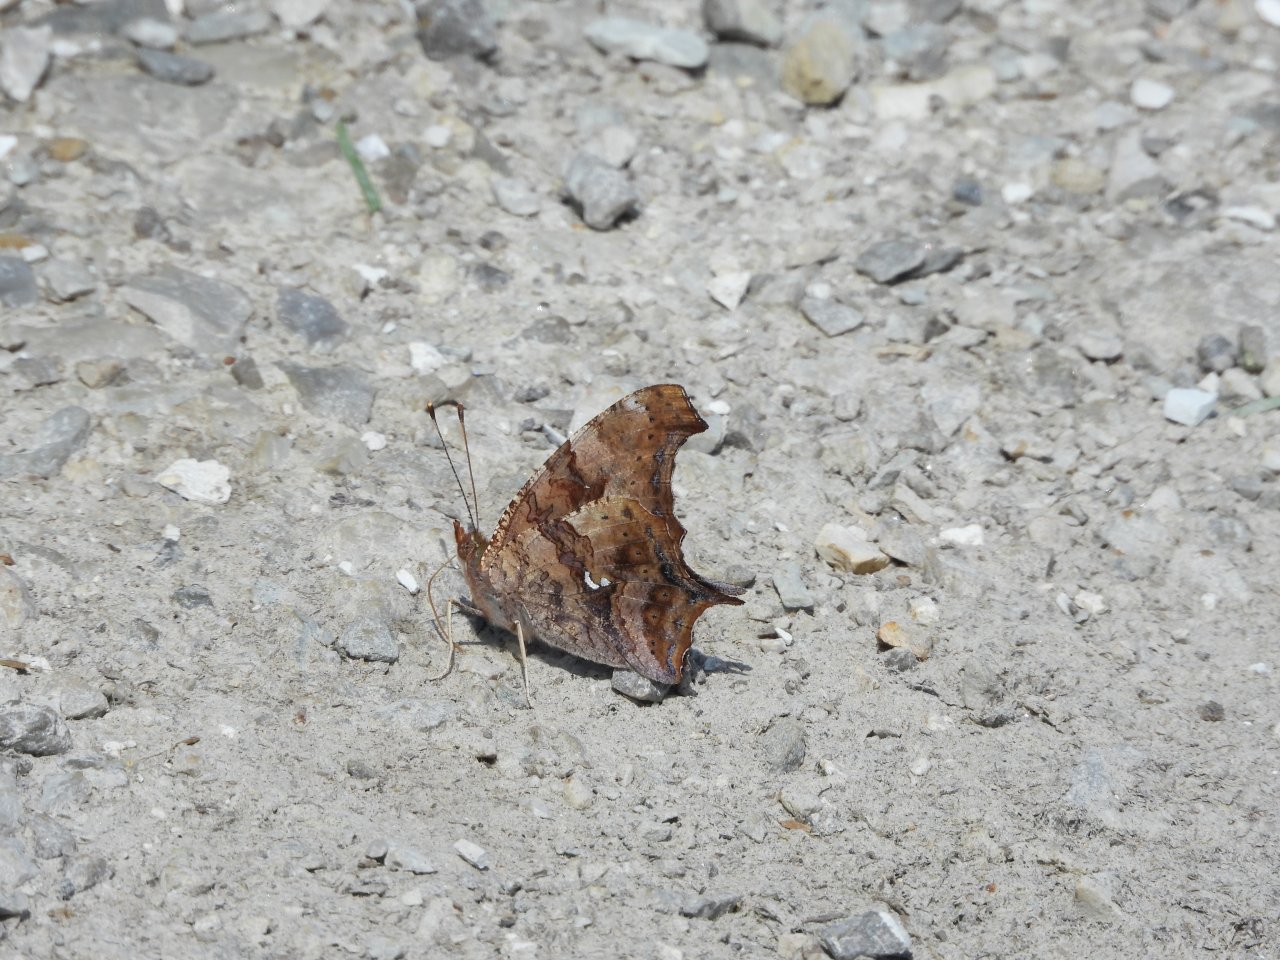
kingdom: Animalia
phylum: Arthropoda
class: Insecta
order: Lepidoptera
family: Nymphalidae
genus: Polygonia
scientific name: Polygonia interrogationis
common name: Question Mark
